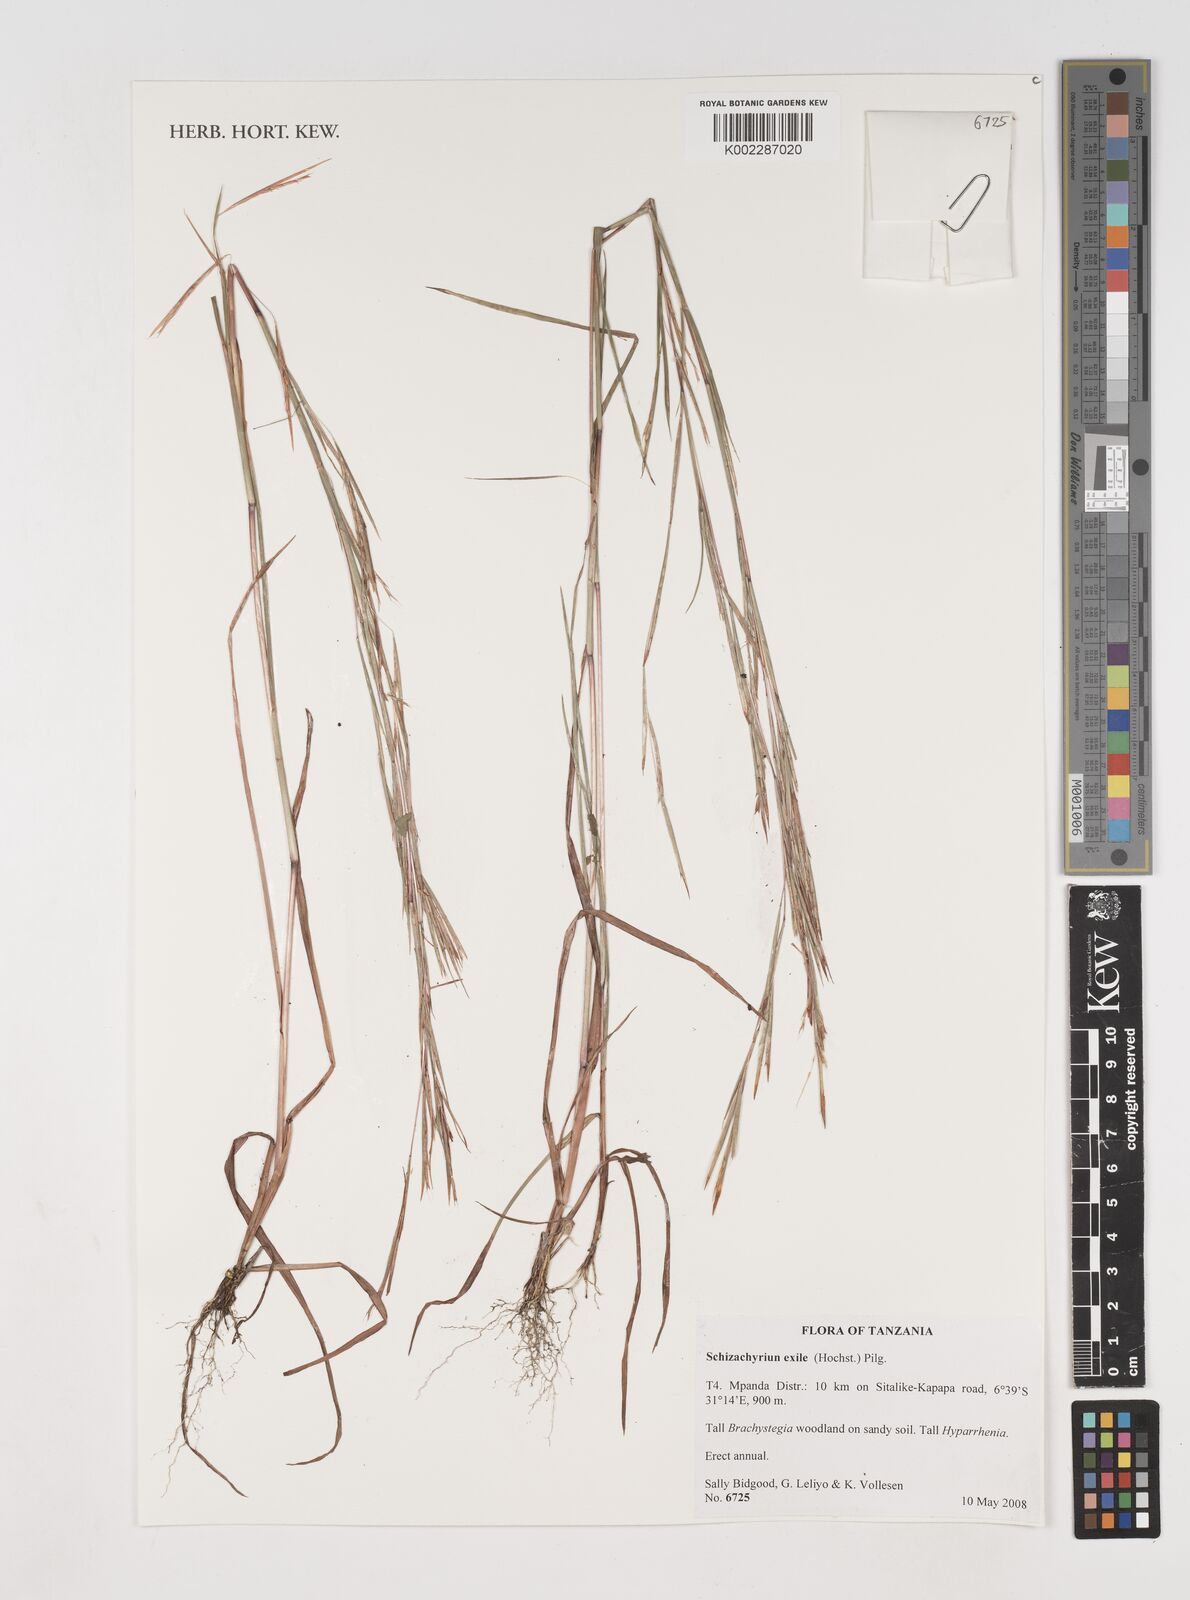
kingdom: Plantae
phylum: Tracheophyta
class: Liliopsida
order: Poales
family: Poaceae
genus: Schizachyrium
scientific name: Schizachyrium exile
